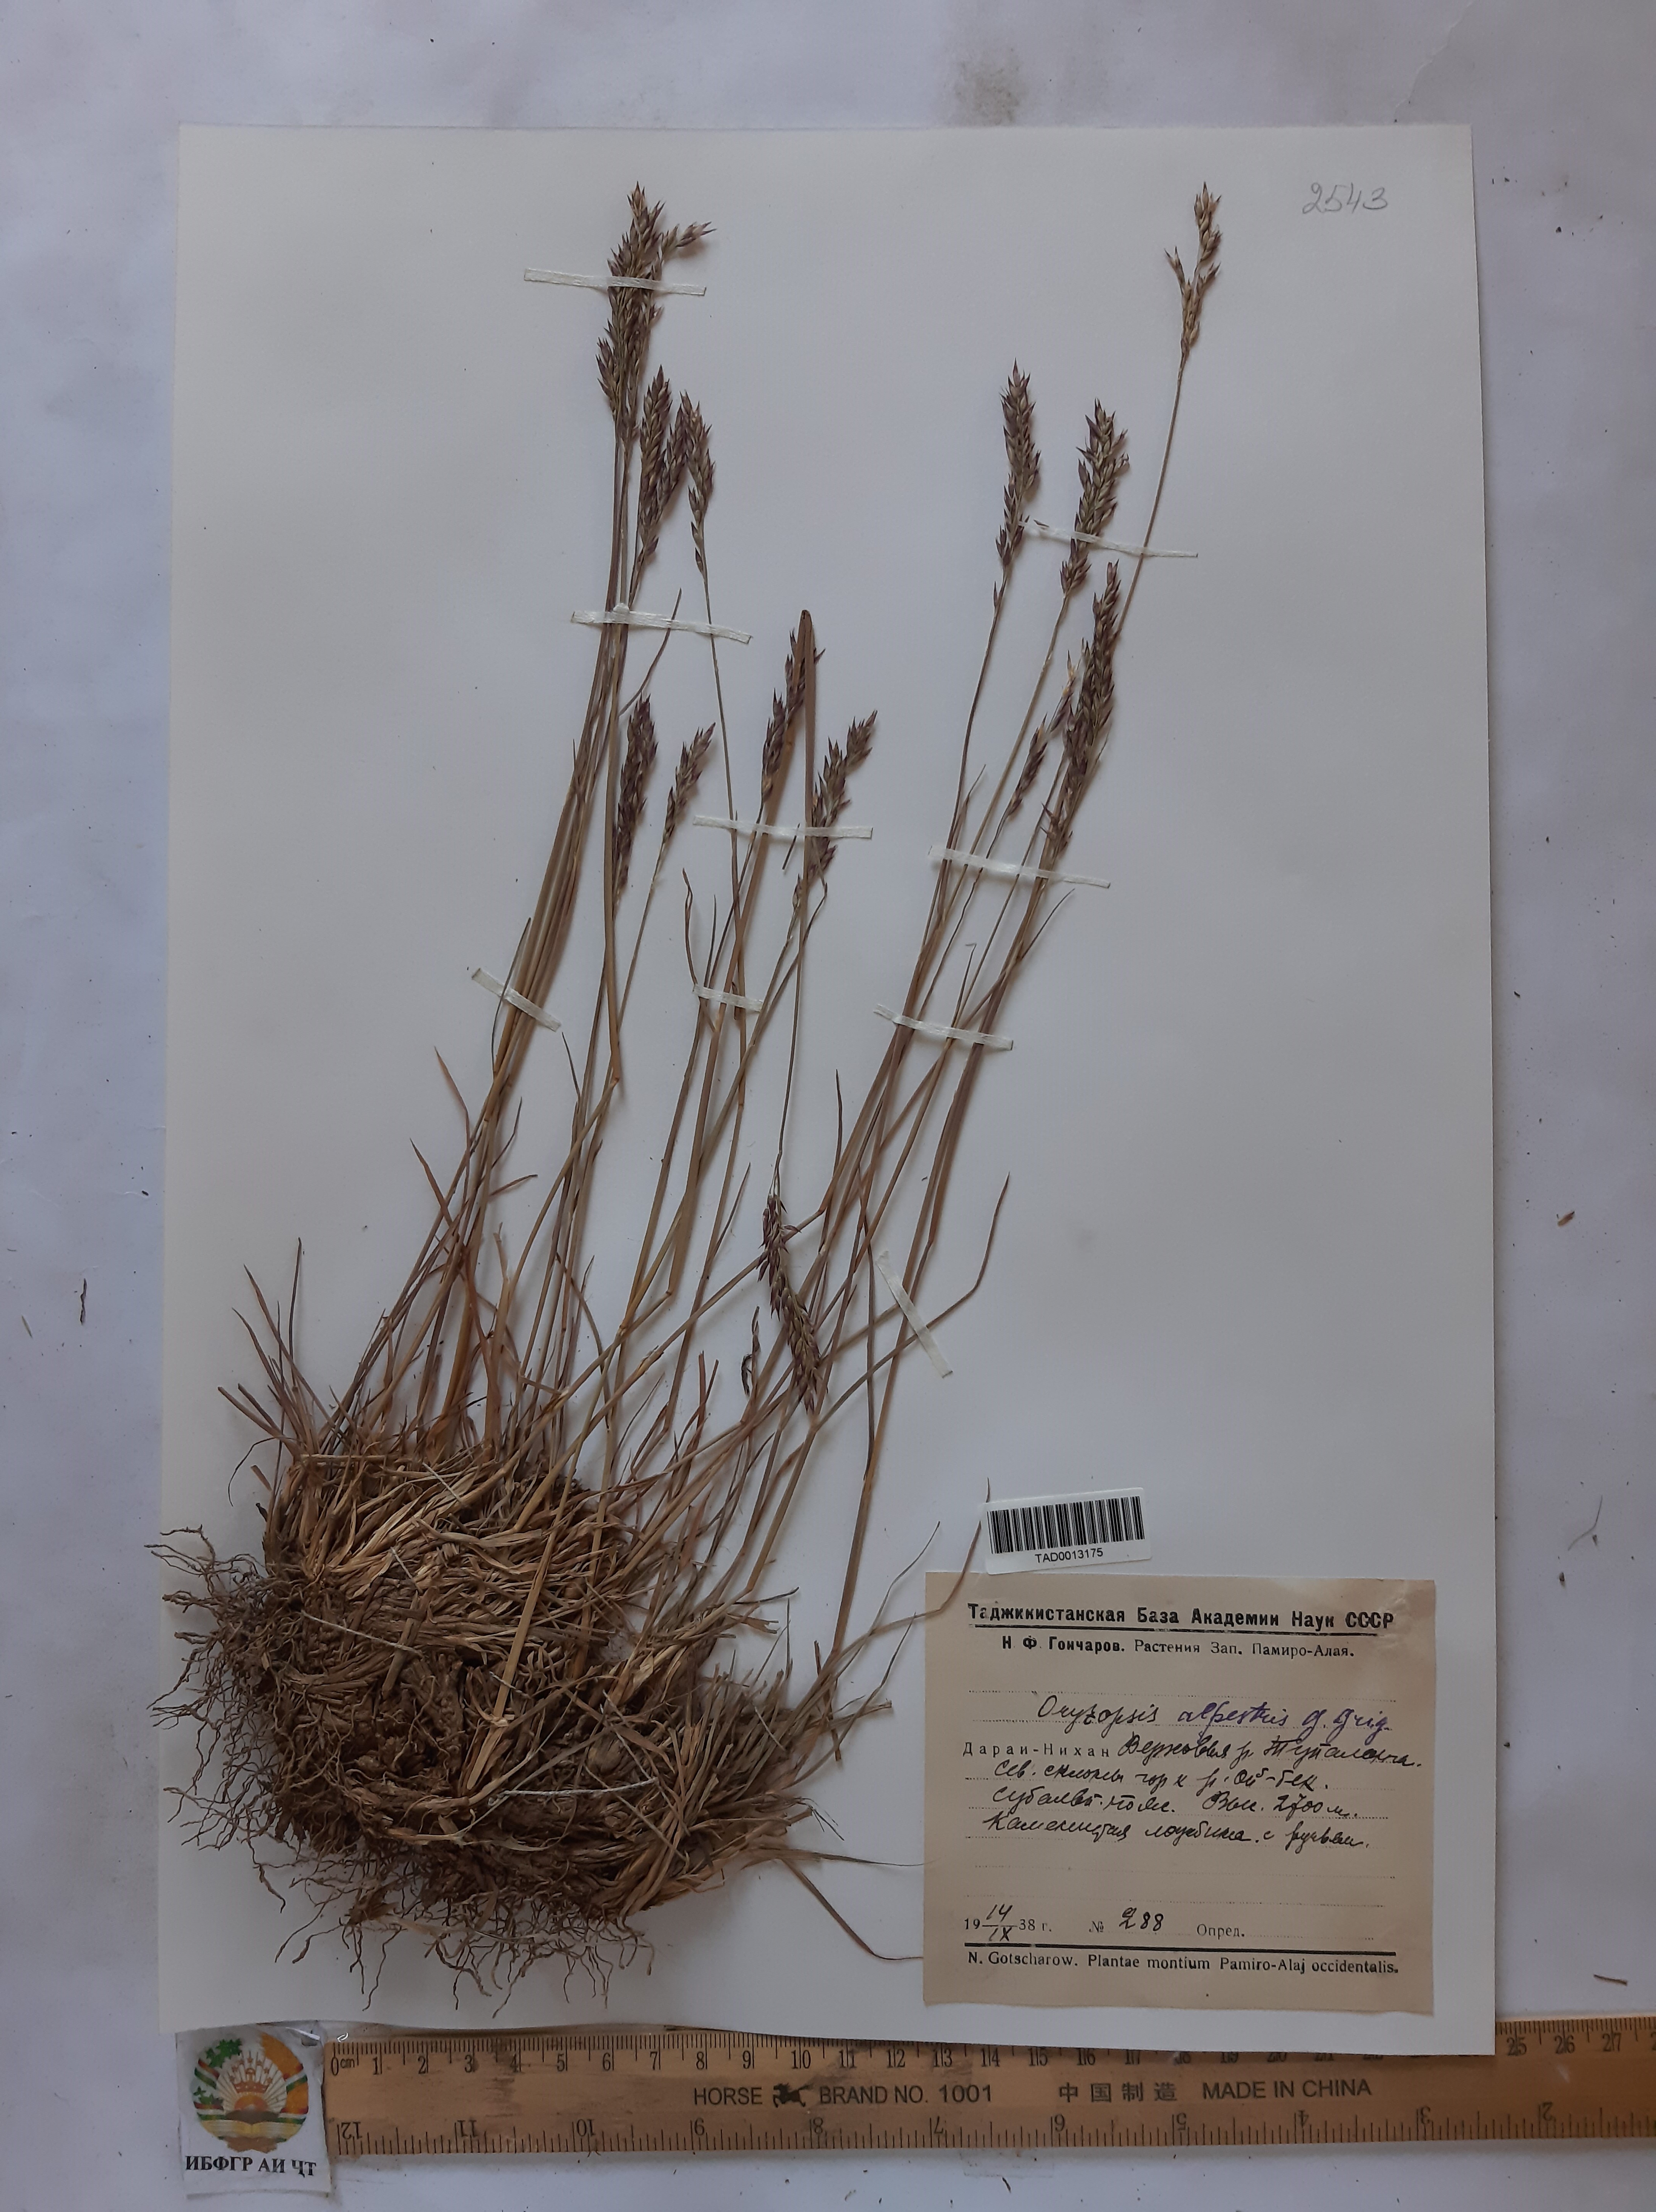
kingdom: Plantae
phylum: Tracheophyta
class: Liliopsida
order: Poales
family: Poaceae
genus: Piptatherum
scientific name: Piptatherum alpestre
